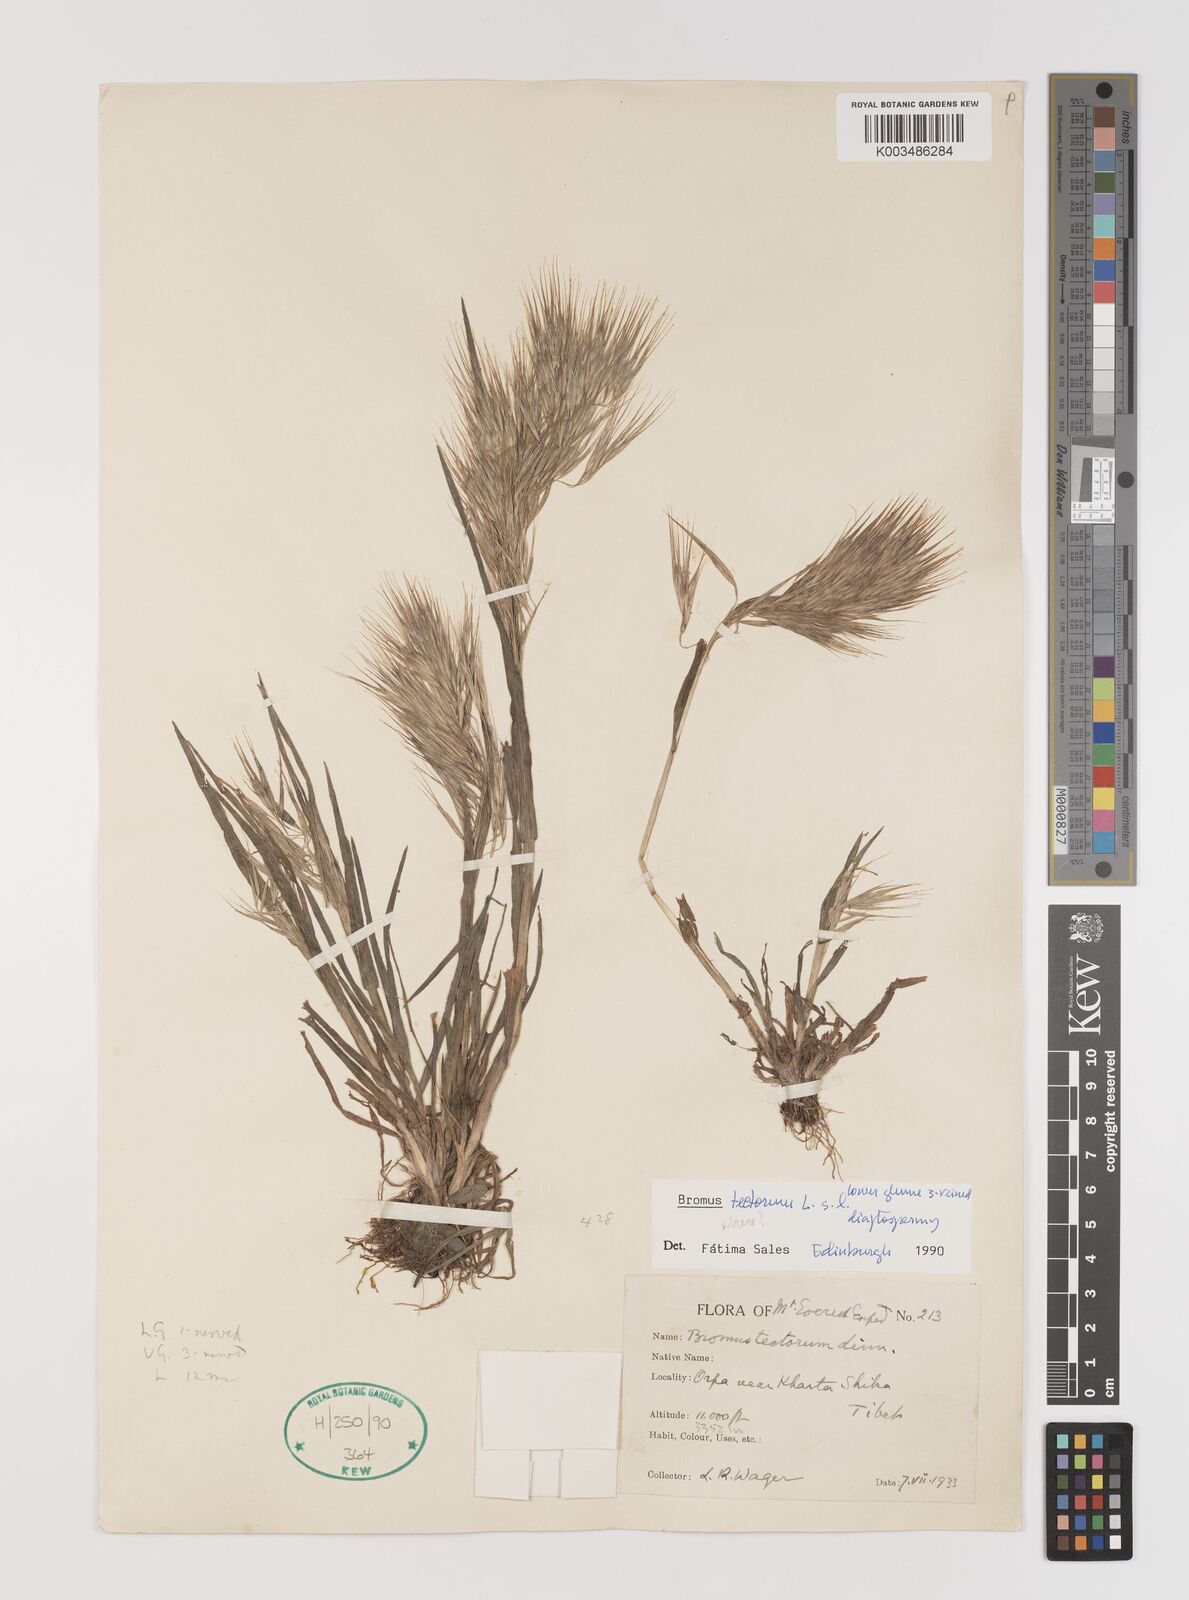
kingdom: Plantae
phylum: Tracheophyta
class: Liliopsida
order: Poales
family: Poaceae
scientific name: Poaceae
